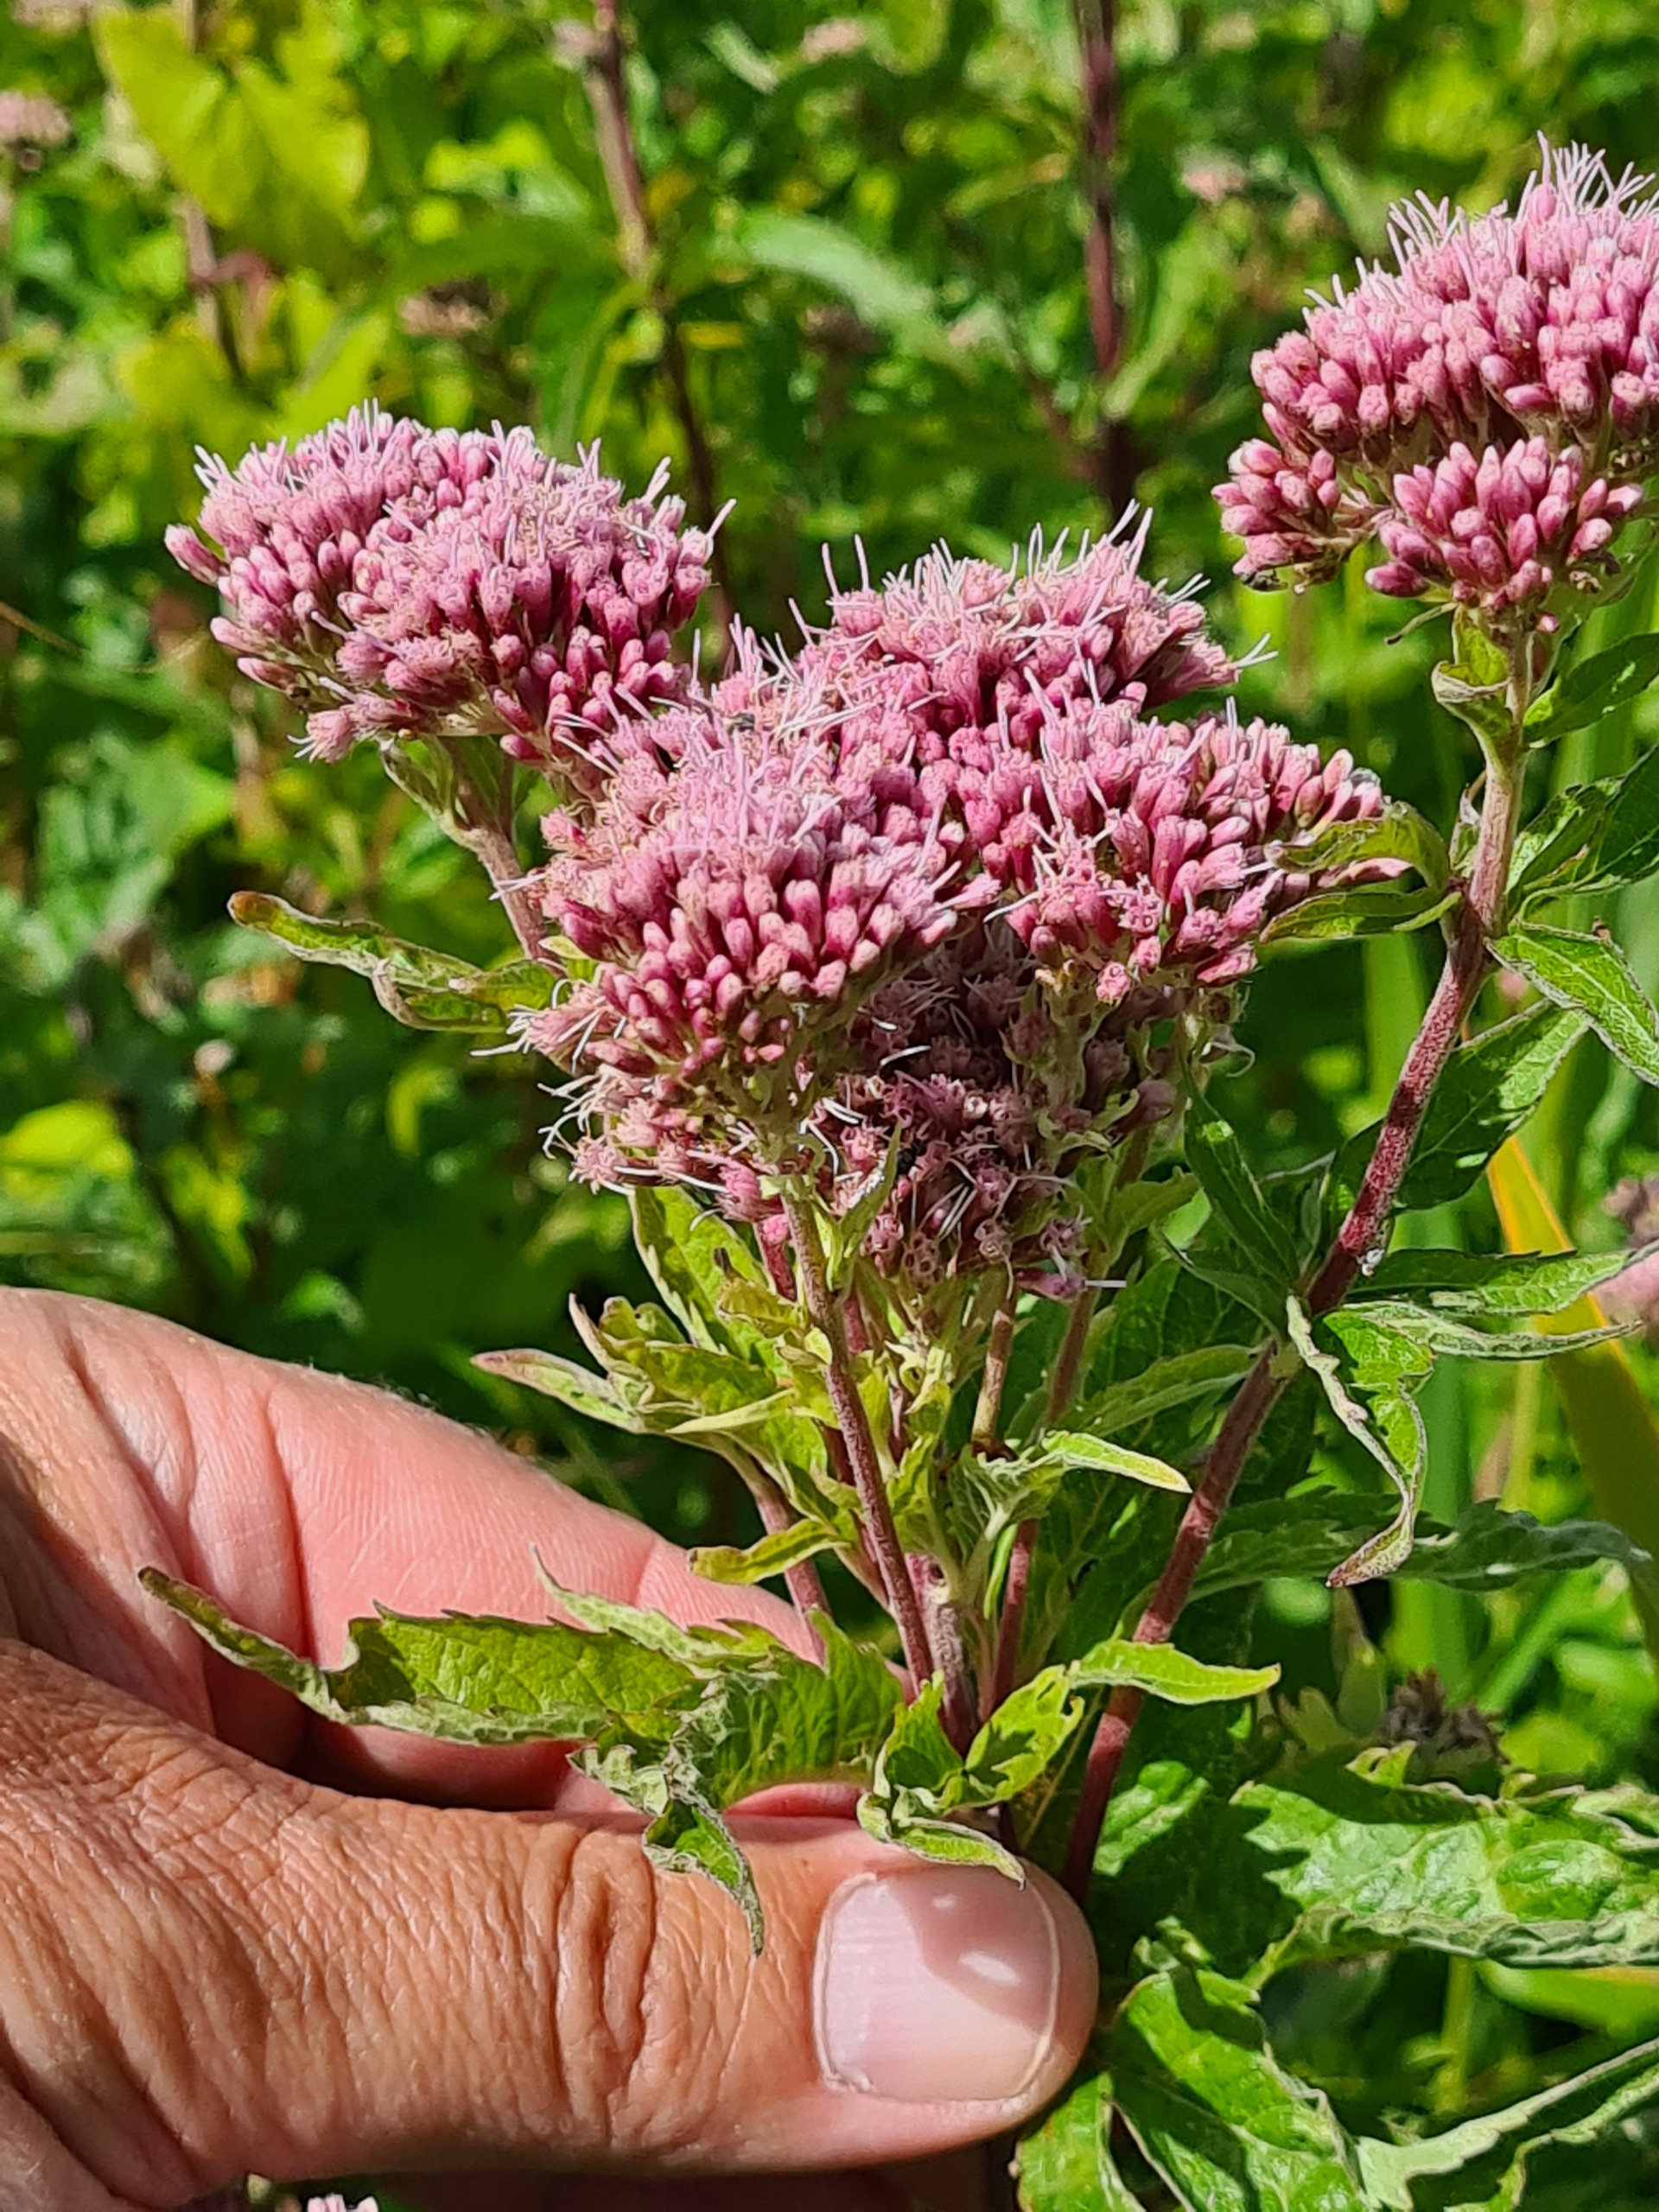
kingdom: Plantae
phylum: Tracheophyta
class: Magnoliopsida
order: Asterales
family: Asteraceae
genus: Eupatorium
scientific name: Eupatorium cannabinum
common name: Hjortetrøst
